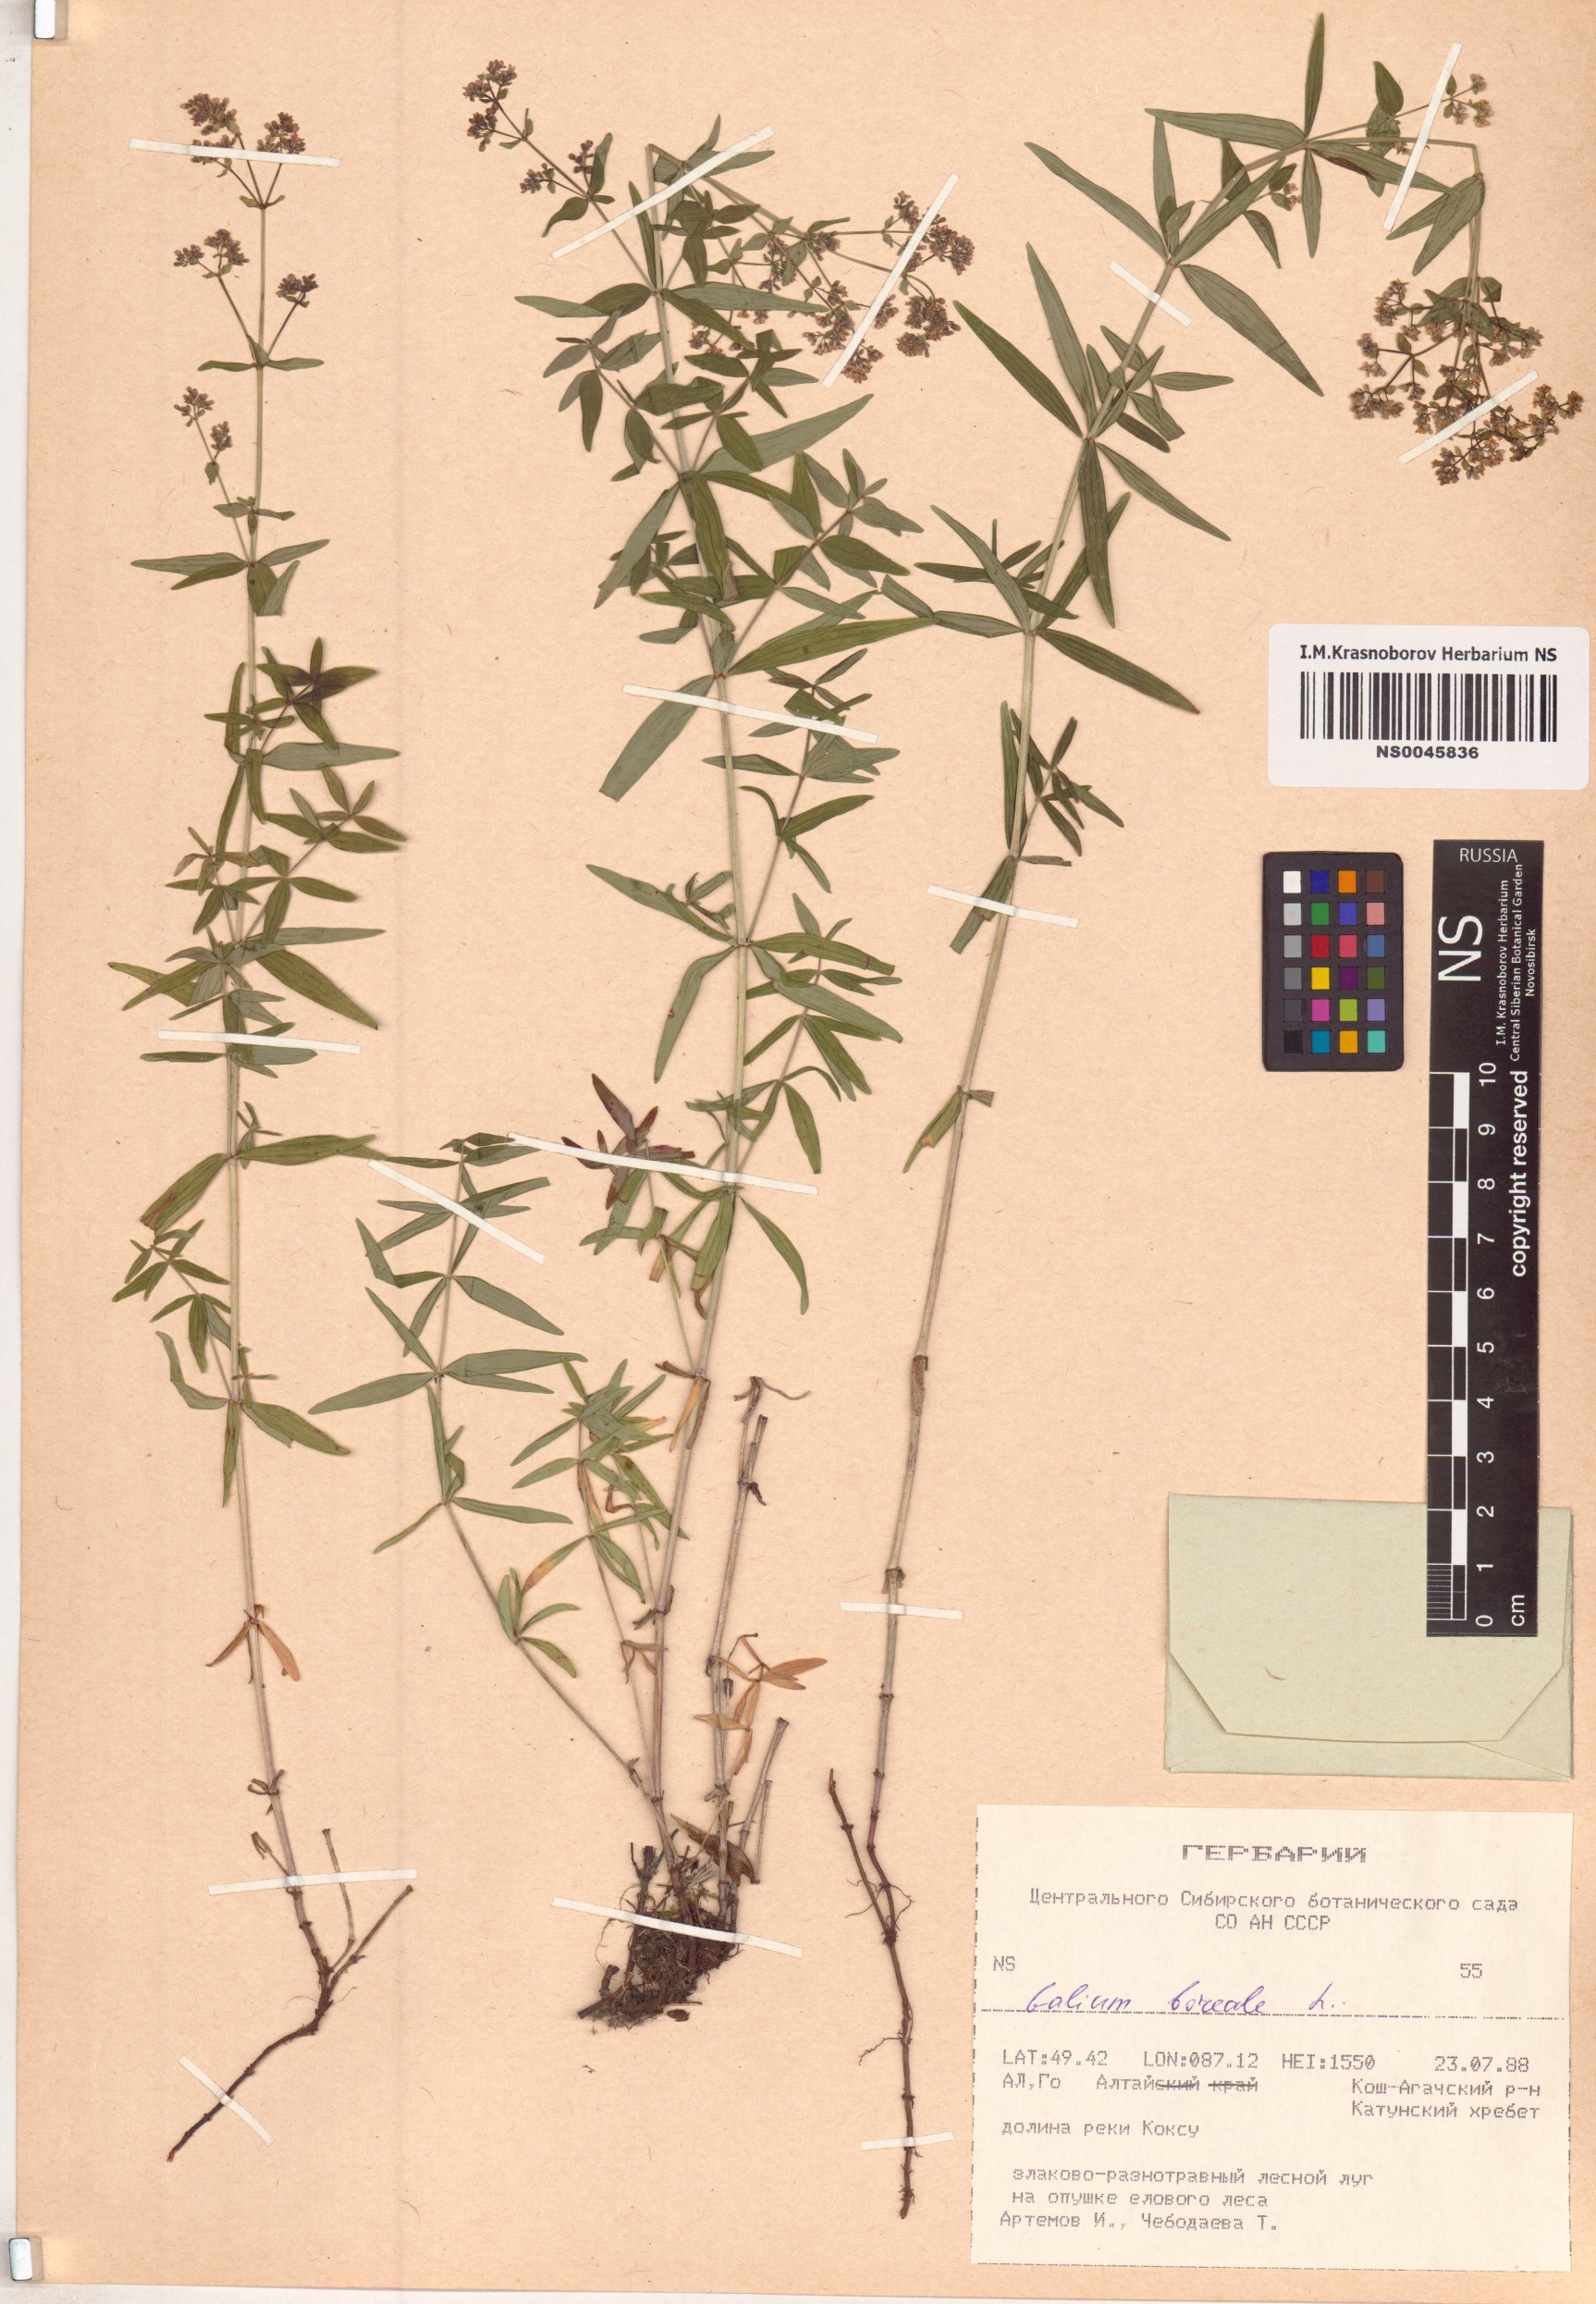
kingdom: Plantae
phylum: Tracheophyta
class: Magnoliopsida
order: Gentianales
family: Rubiaceae
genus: Galium
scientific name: Galium boreale
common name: Northern bedstraw
